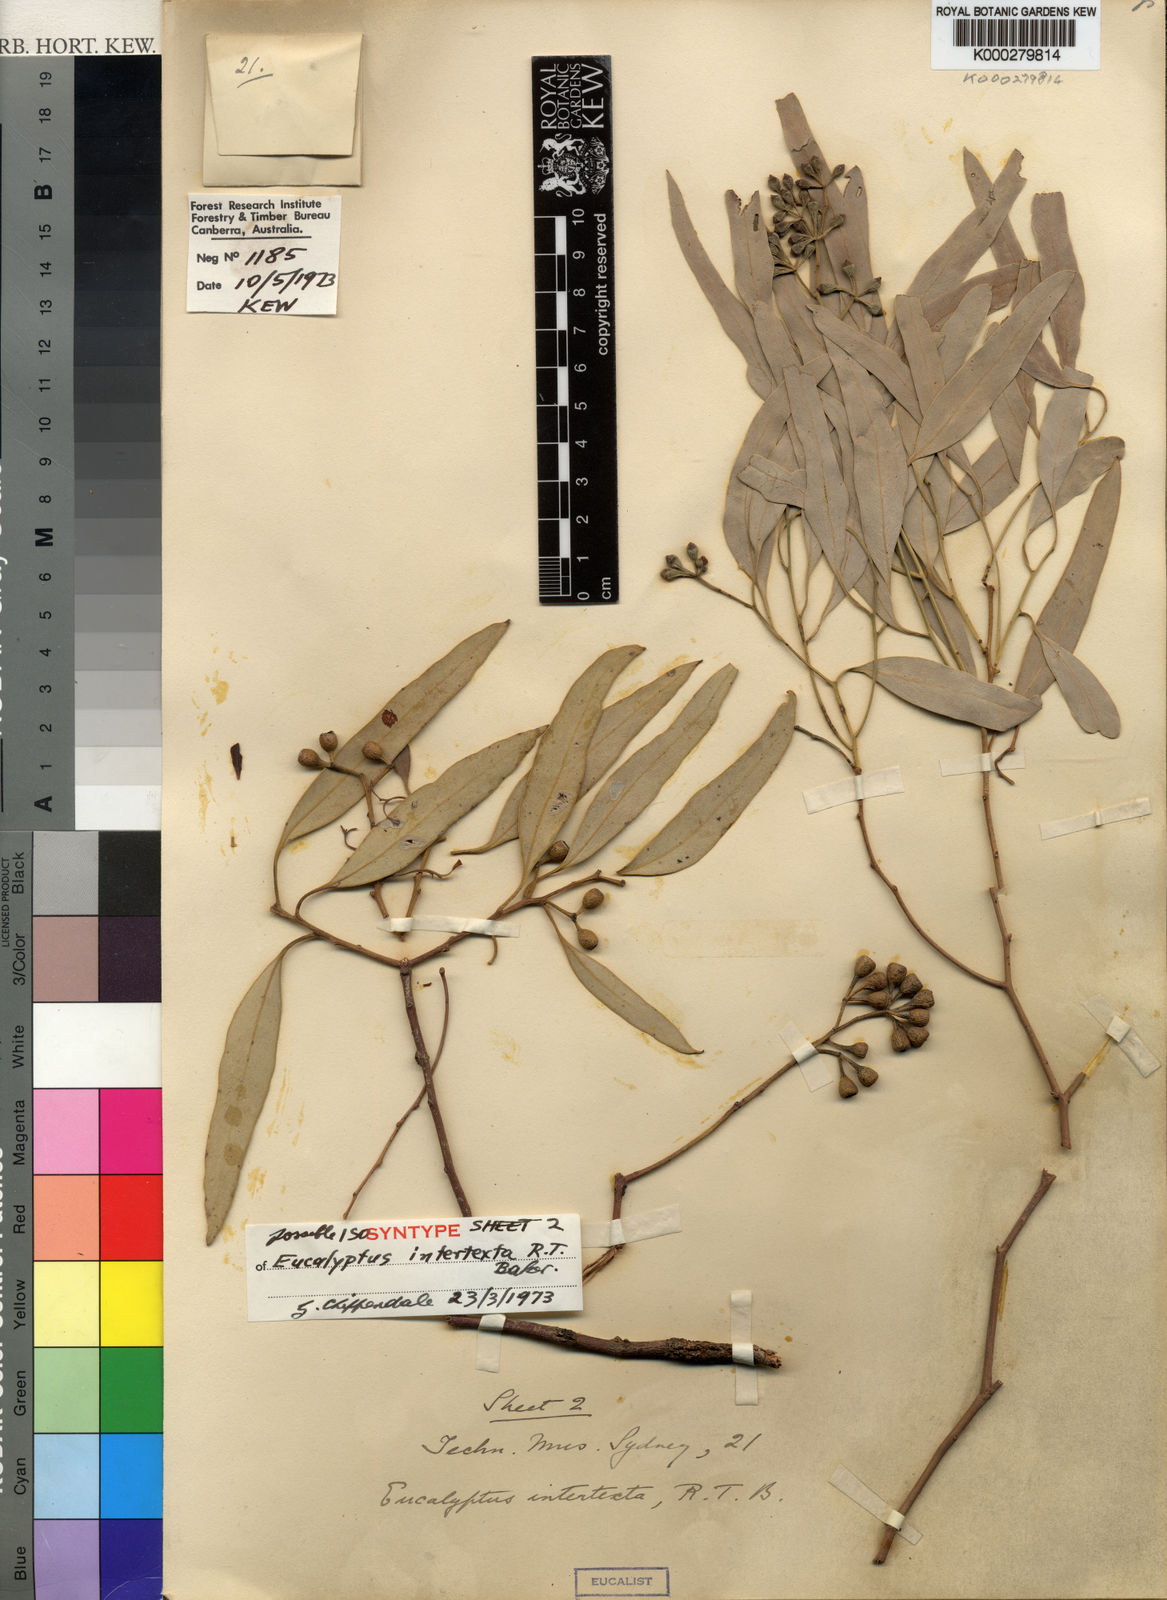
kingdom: Plantae
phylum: Tracheophyta
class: Magnoliopsida
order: Myrtales
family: Myrtaceae
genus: Eucalyptus
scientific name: Eucalyptus intertexta
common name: Bastard coolibah
